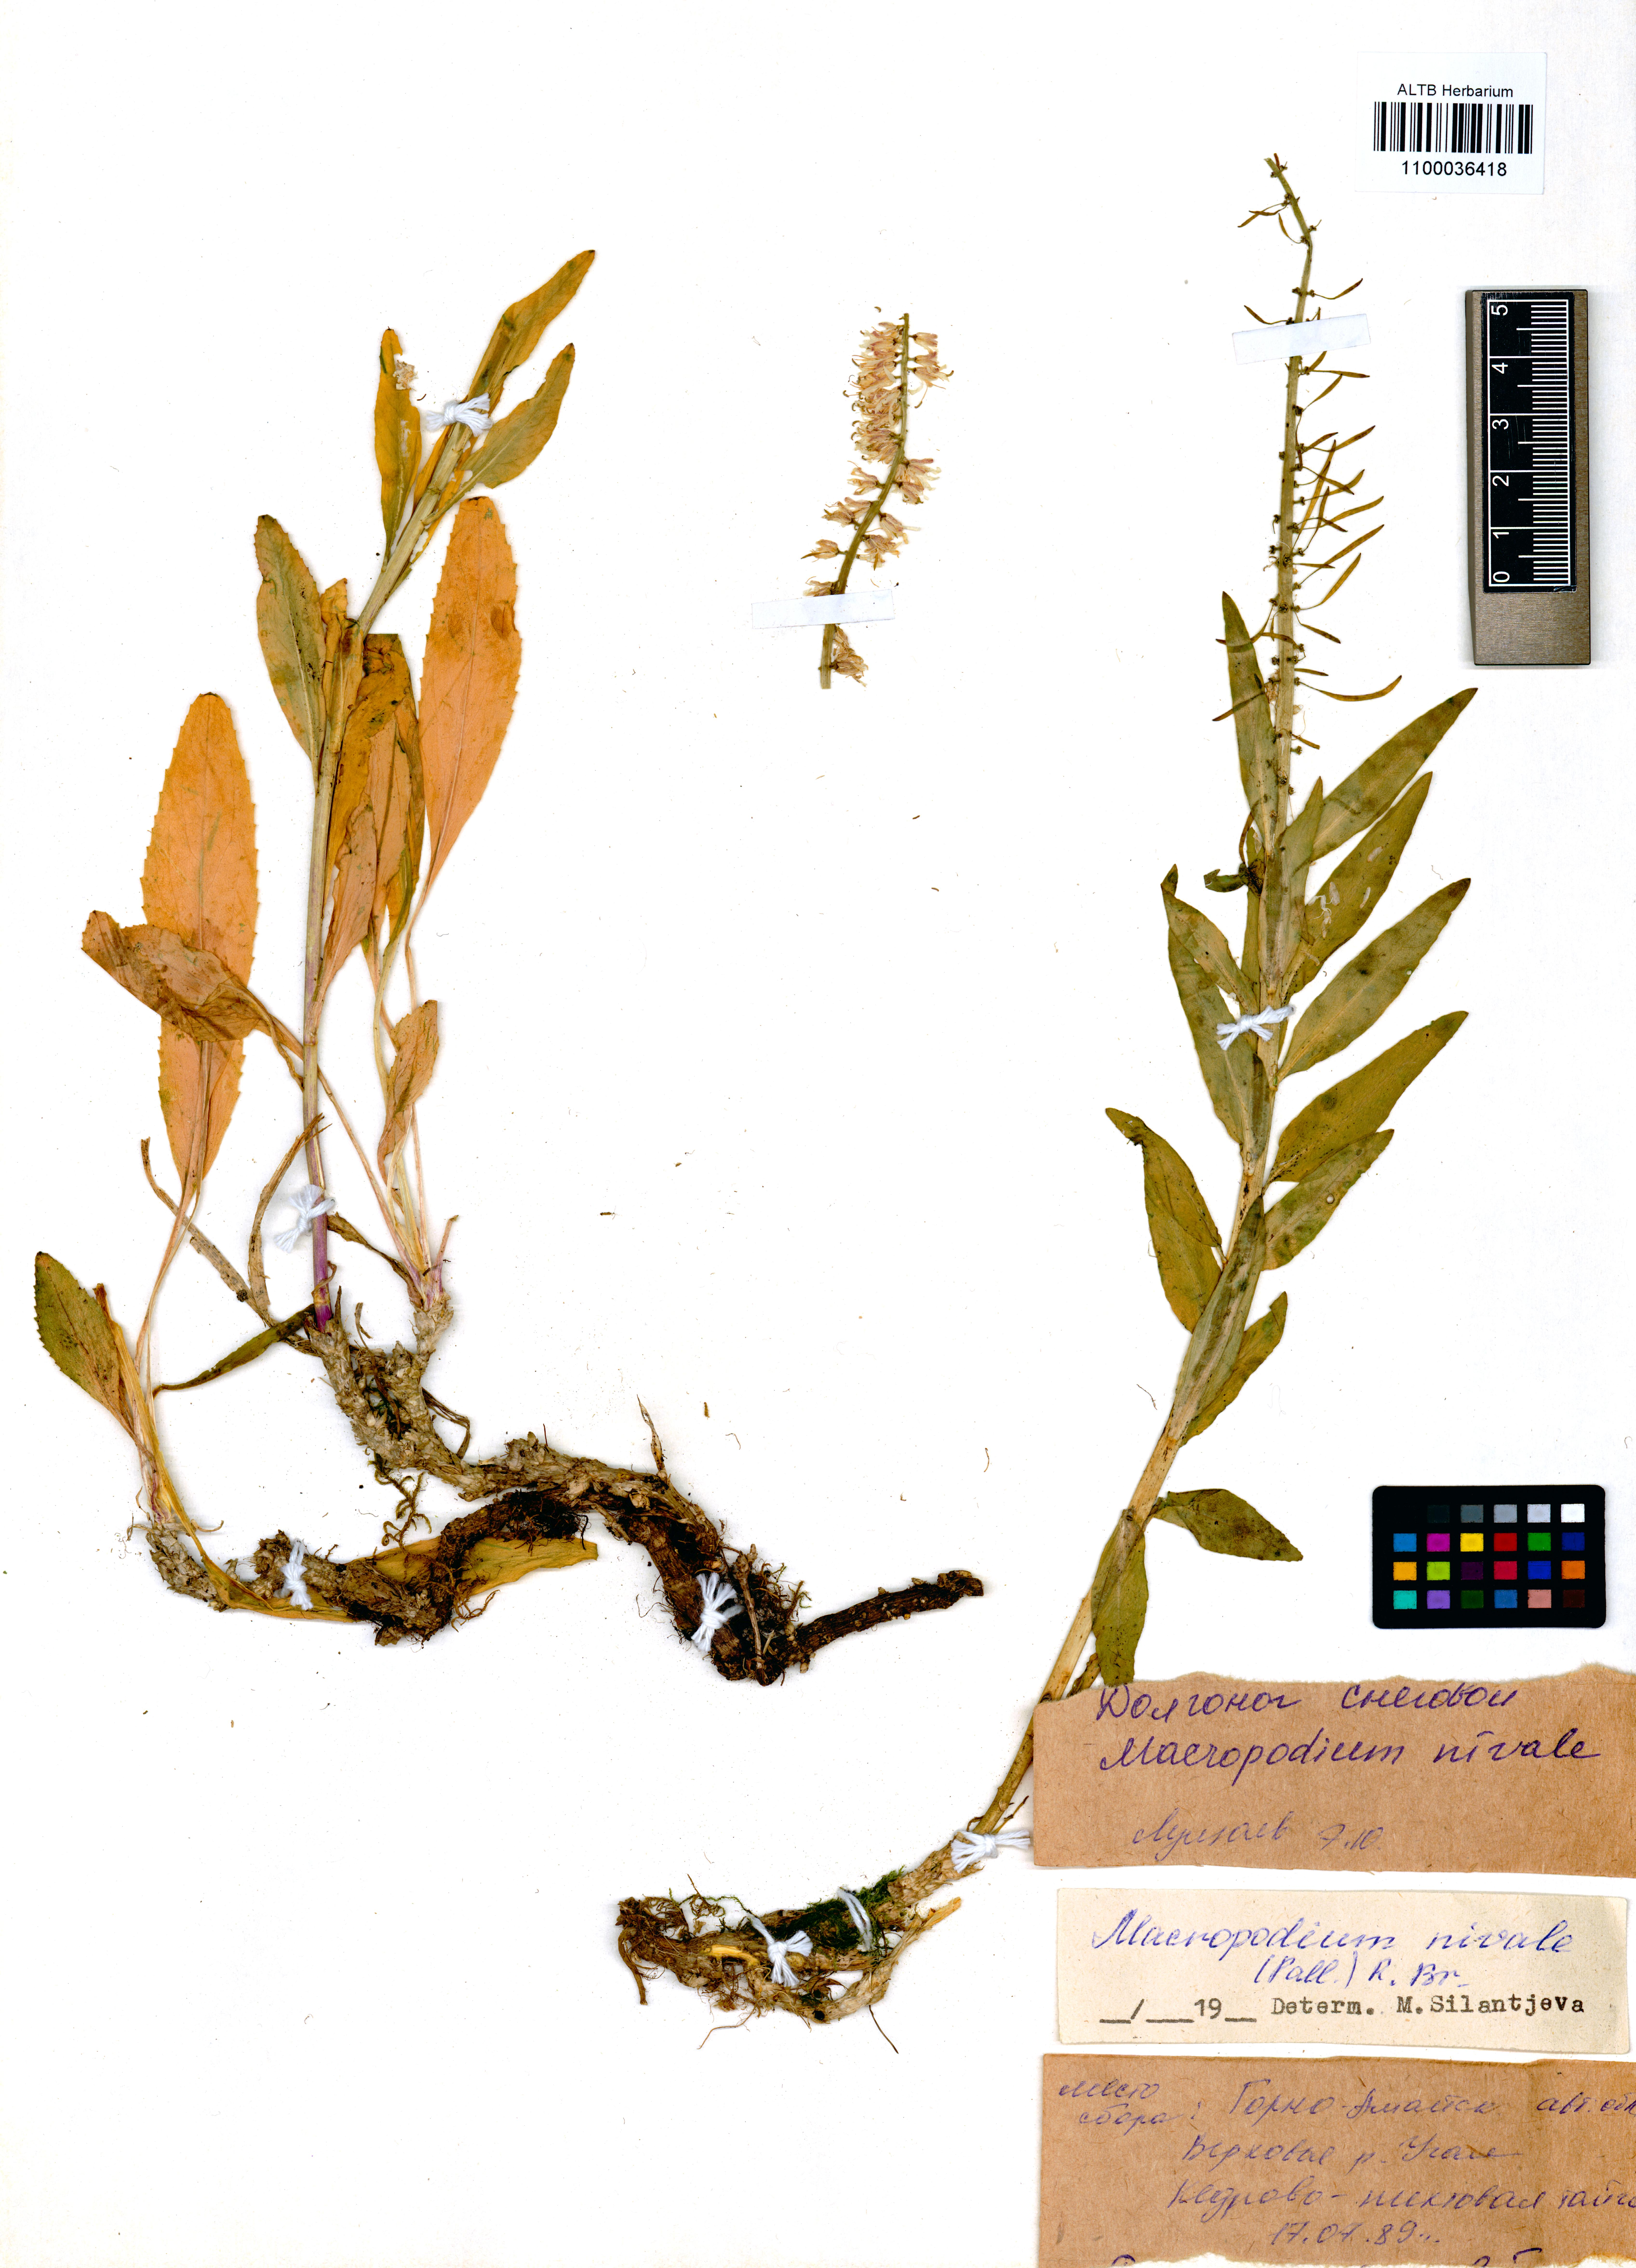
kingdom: Plantae
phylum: Tracheophyta
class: Magnoliopsida
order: Brassicales
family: Brassicaceae
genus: Macropodium
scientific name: Macropodium nivale
